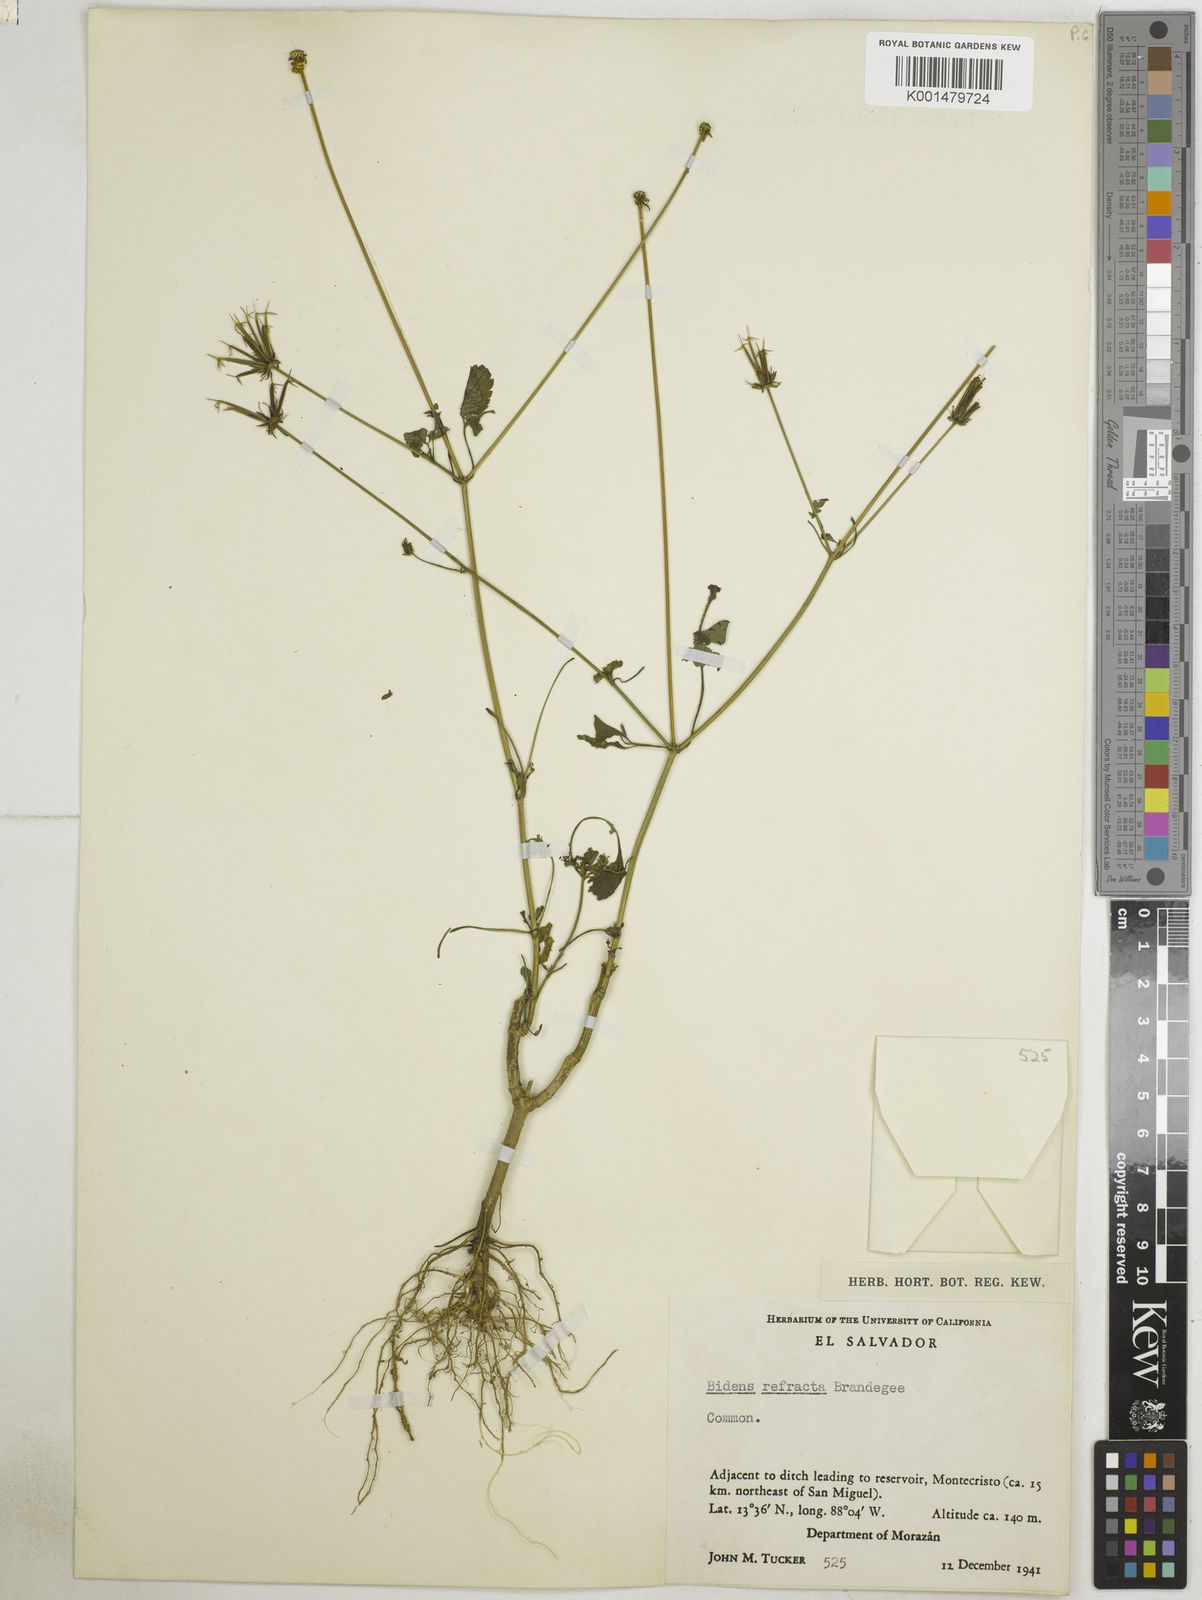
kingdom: Plantae
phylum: Tracheophyta
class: Magnoliopsida
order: Asterales
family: Asteraceae
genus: Bidens
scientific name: Bidens riparia
